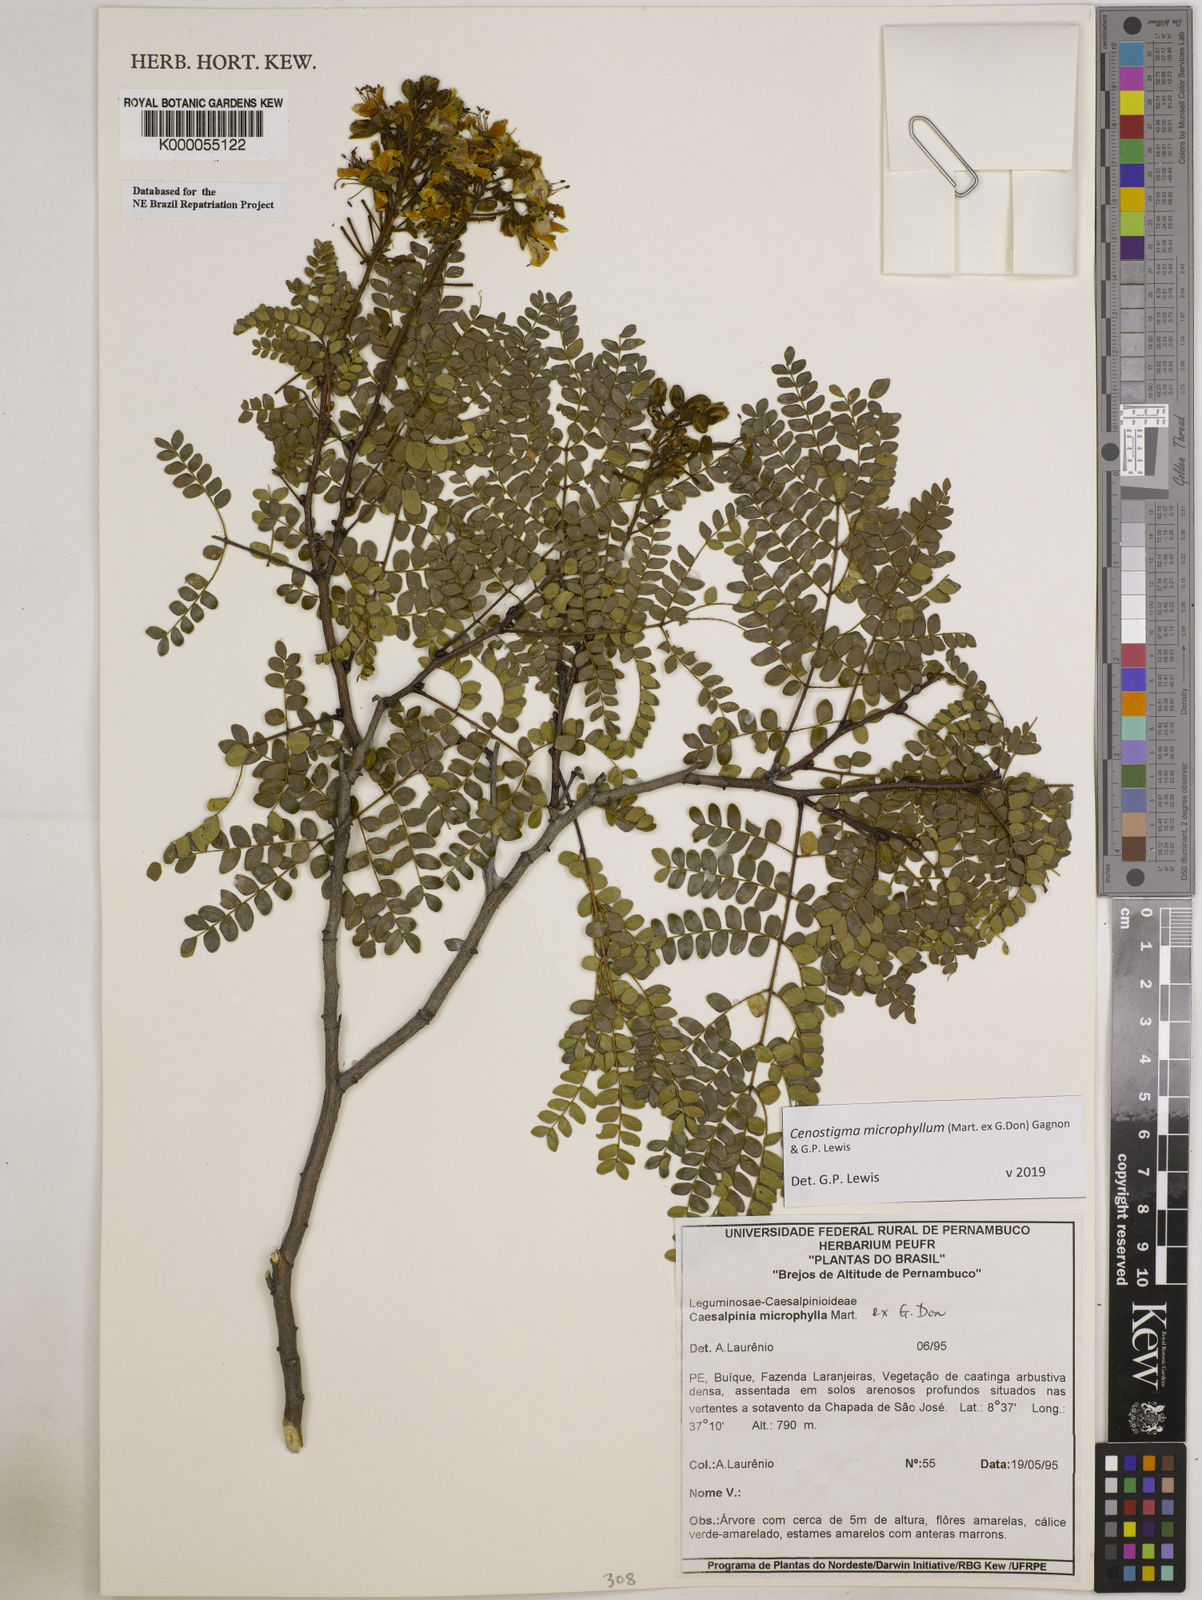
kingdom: Plantae
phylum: Tracheophyta
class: Magnoliopsida
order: Fabales
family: Fabaceae
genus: Cenostigma
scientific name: Cenostigma microphyllum
